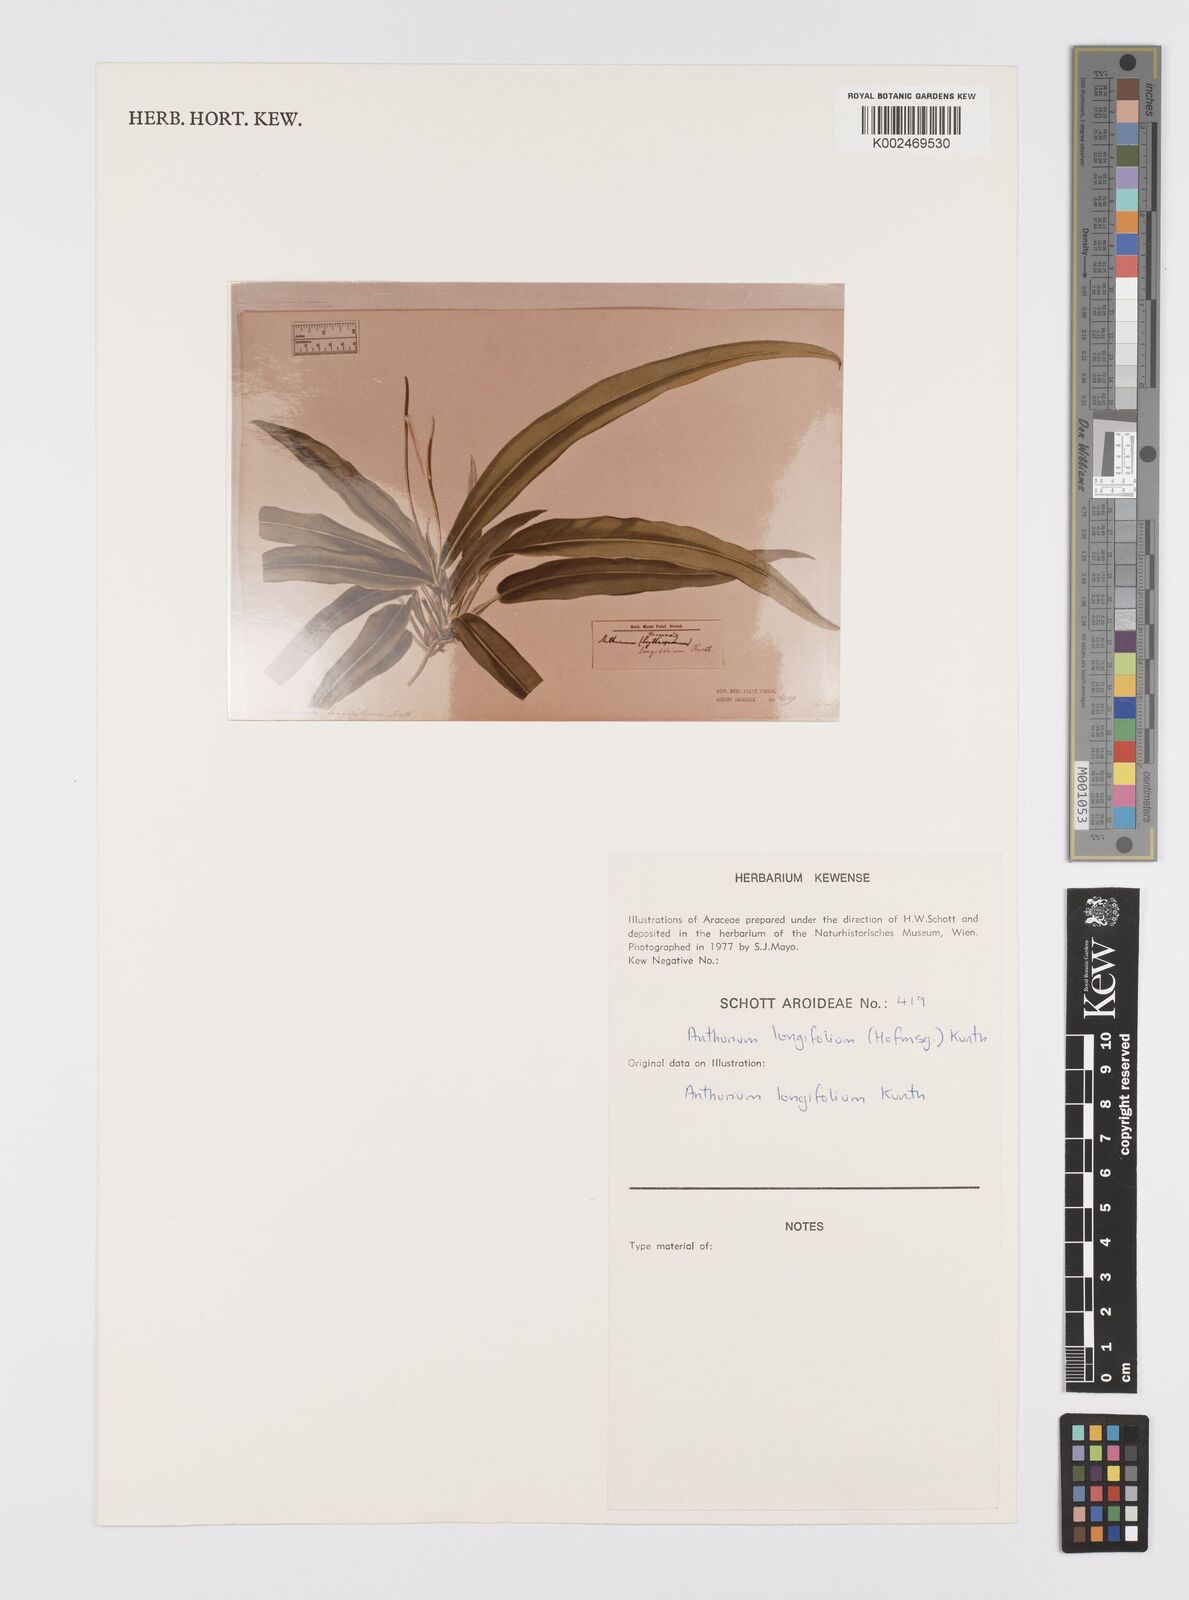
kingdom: Plantae
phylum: Tracheophyta
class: Liliopsida
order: Alismatales
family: Araceae
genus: Anthurium
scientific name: Anthurium longifolium
